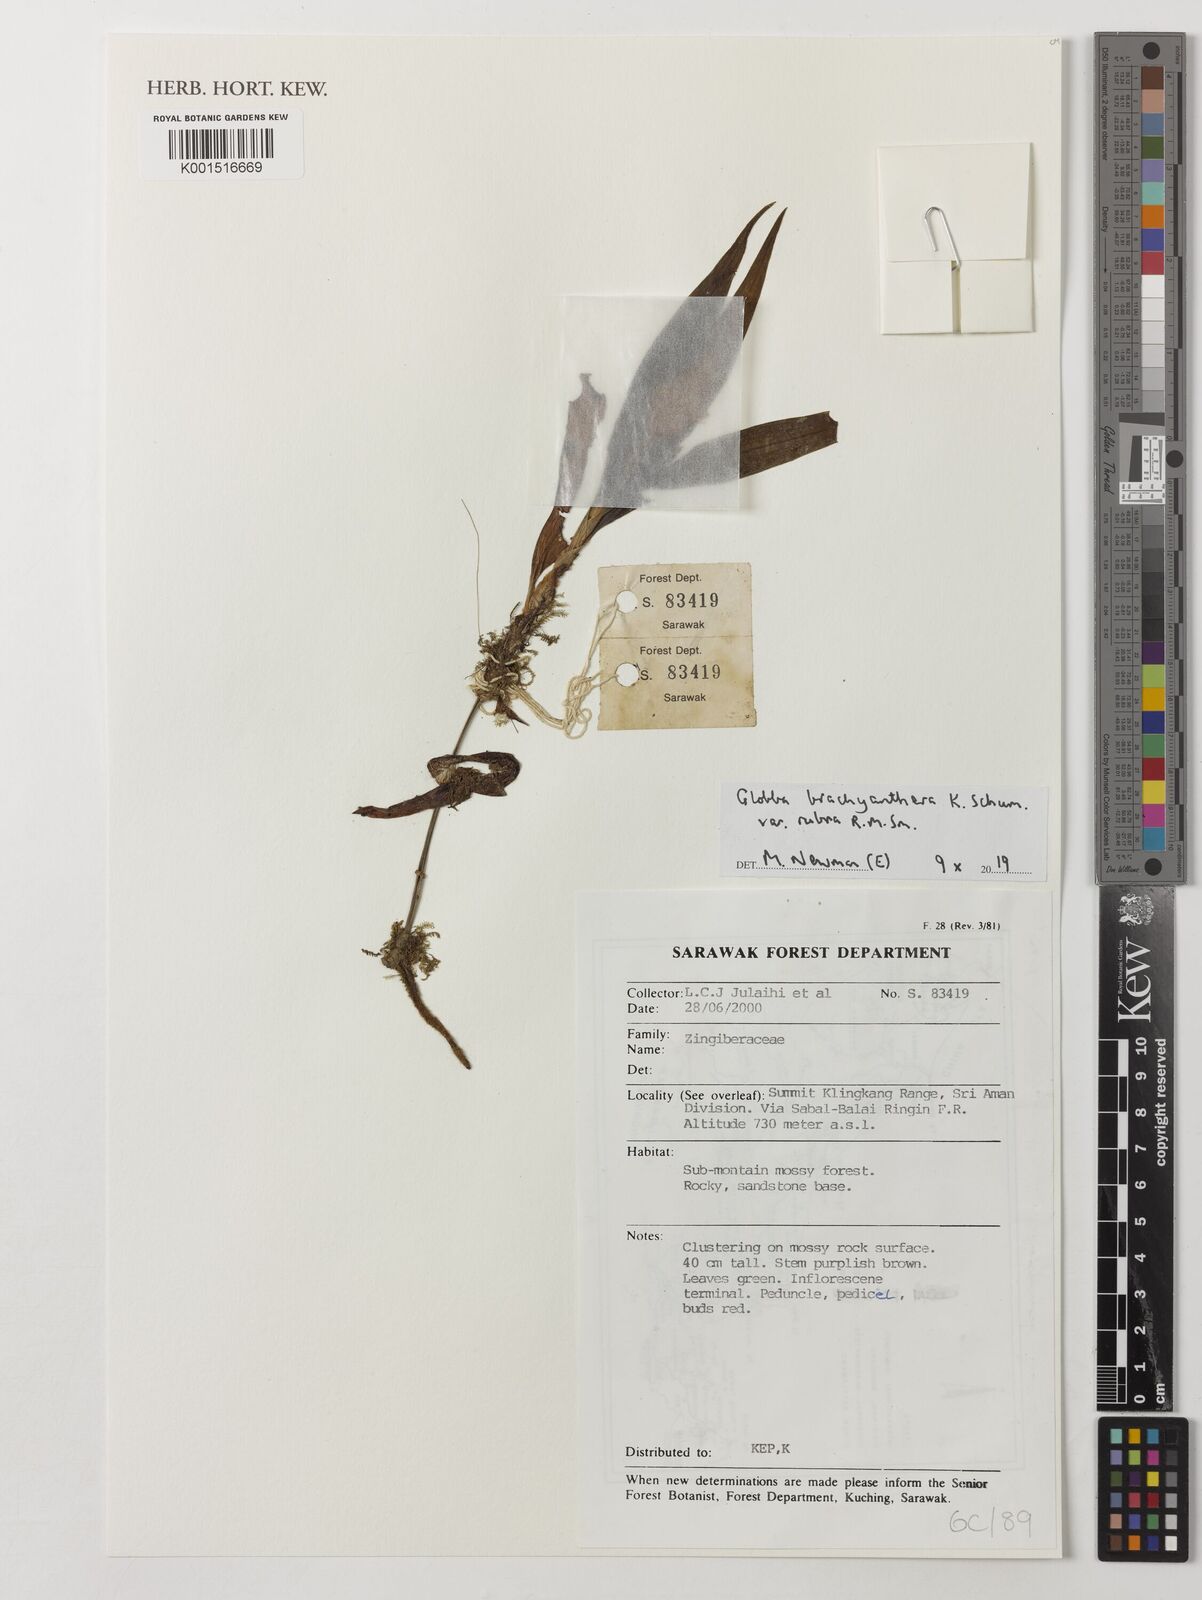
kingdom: Plantae
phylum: Tracheophyta
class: Liliopsida
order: Zingiberales
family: Zingiberaceae
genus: Globba
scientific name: Globba brachyanthera
